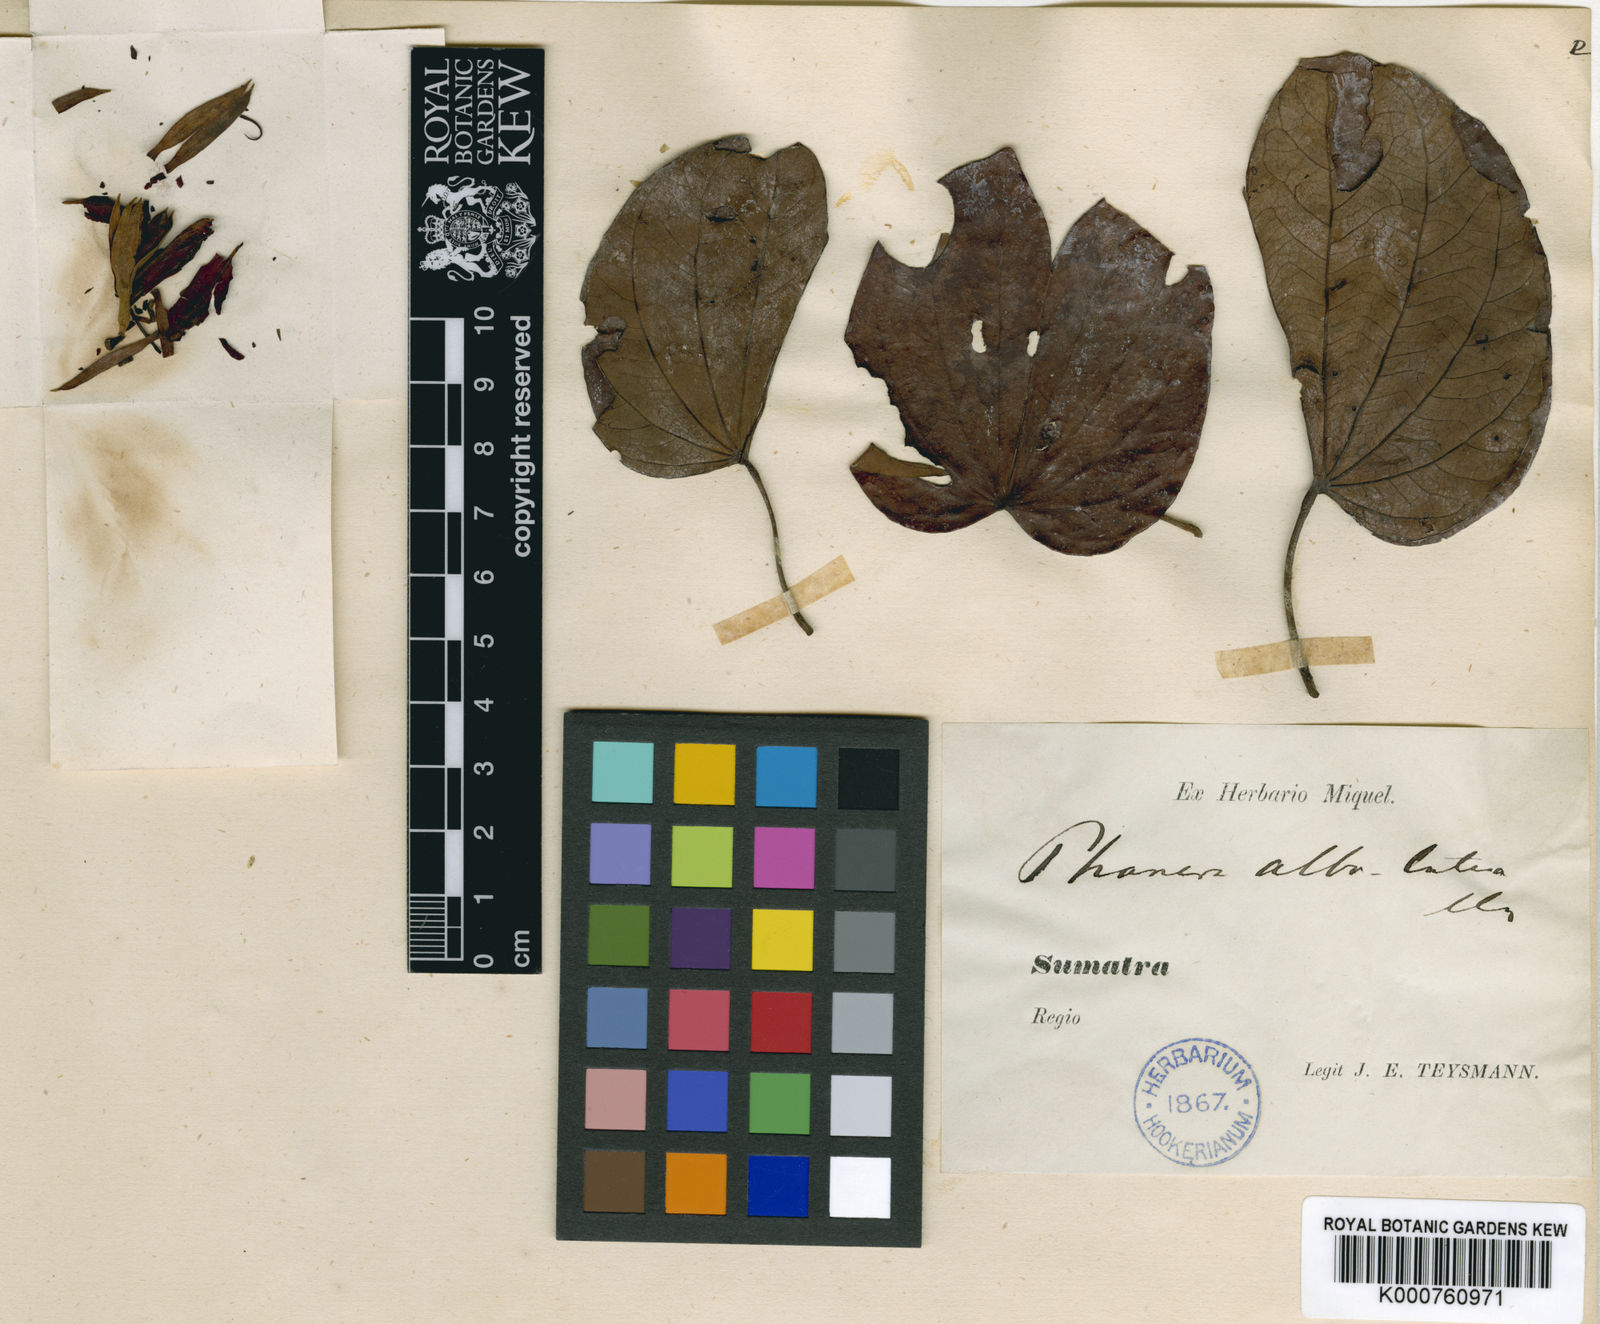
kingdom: Plantae
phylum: Tracheophyta
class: Magnoliopsida
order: Fabales
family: Fabaceae
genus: Phanera
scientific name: Phanera stipularis
